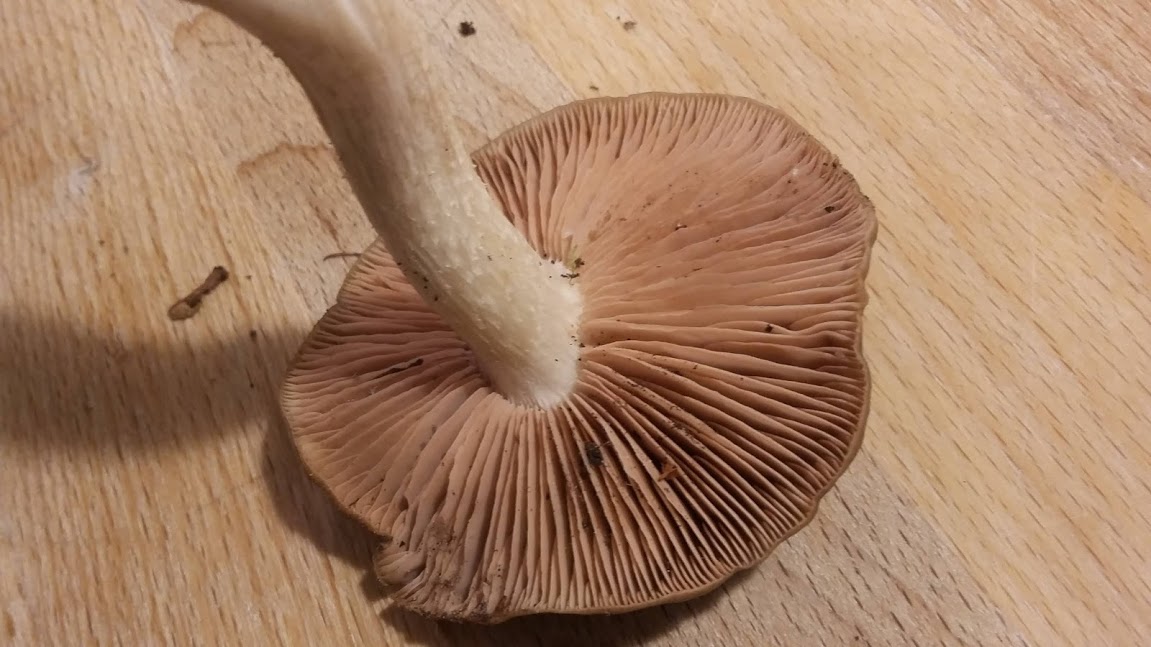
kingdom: Fungi
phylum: Basidiomycota
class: Agaricomycetes
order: Agaricales
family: Entolomataceae
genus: Entoloma
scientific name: Entoloma
